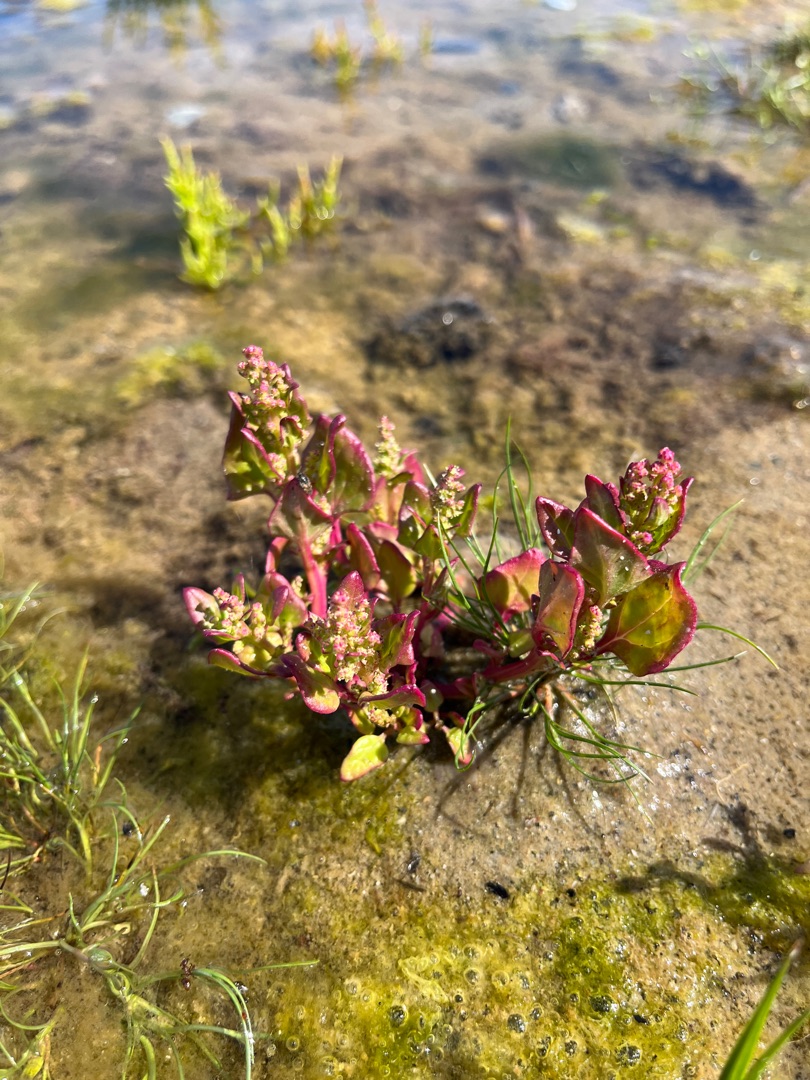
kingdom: Plantae
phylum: Tracheophyta
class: Magnoliopsida
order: Caryophyllales
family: Amaranthaceae
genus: Oxybasis
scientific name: Oxybasis chenopodioides
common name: Drue-gåsefod
